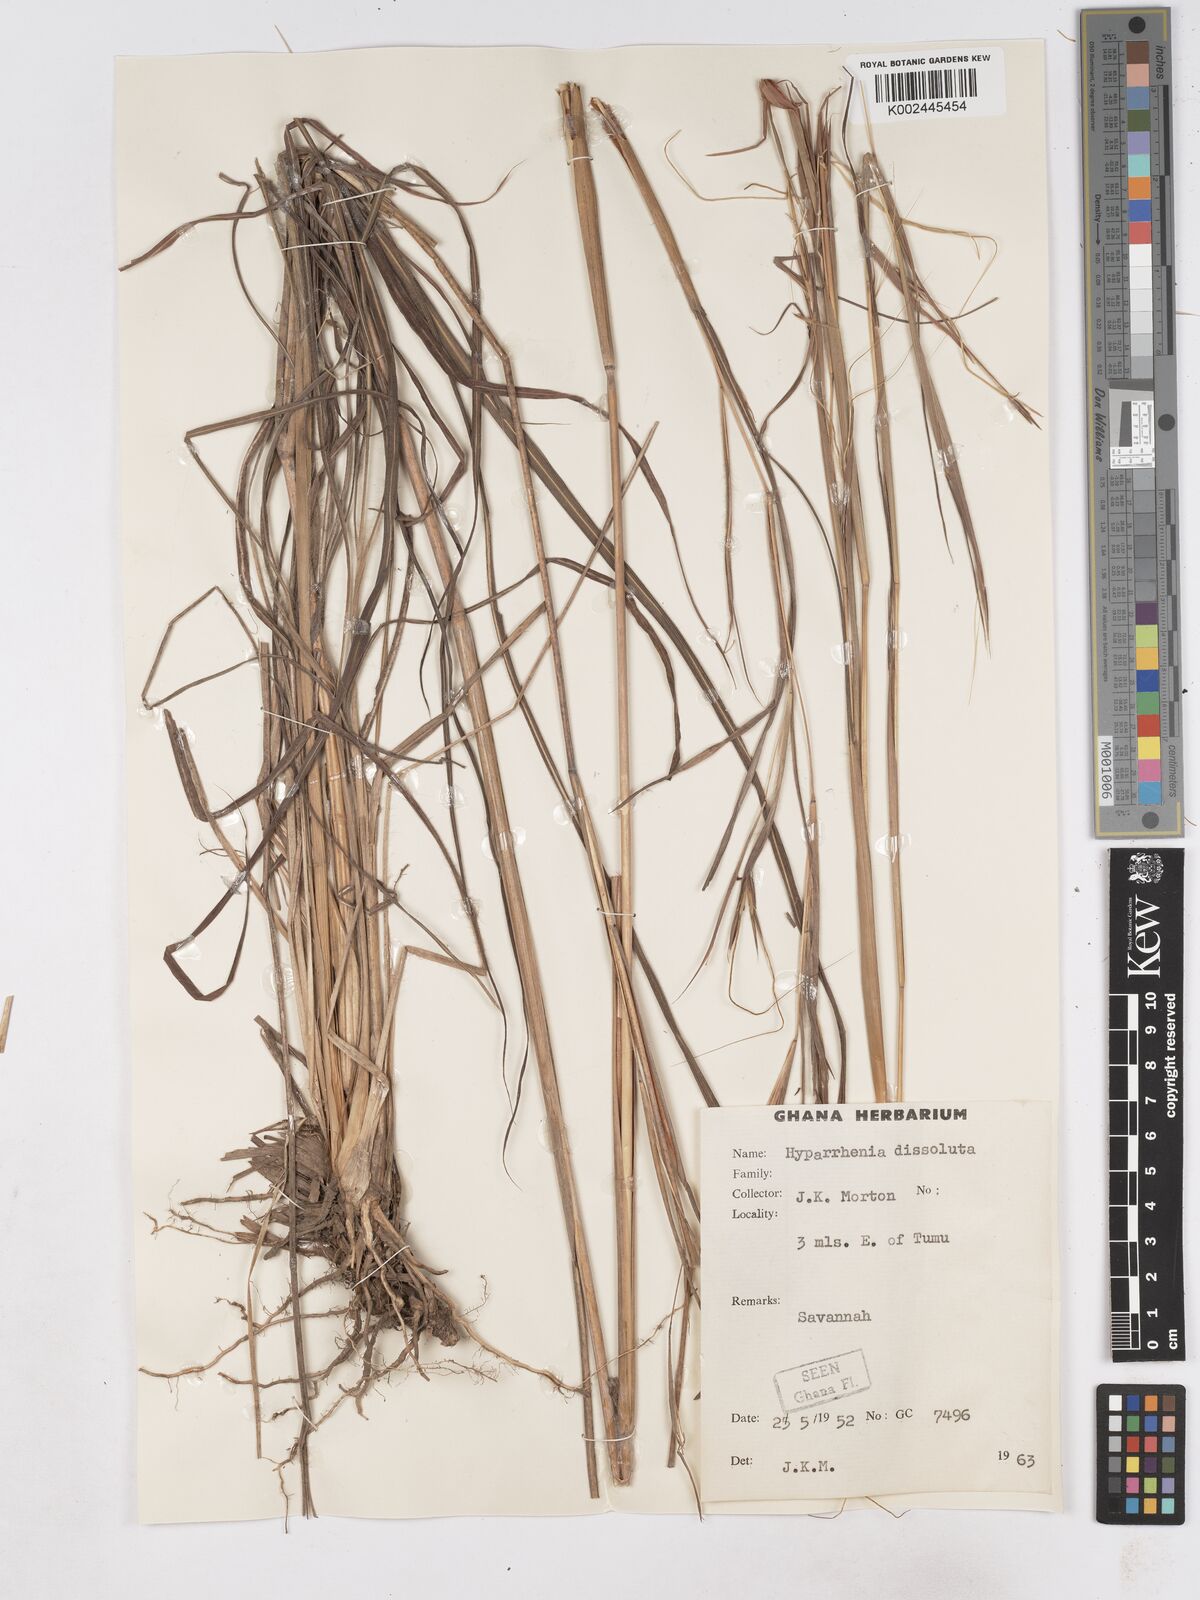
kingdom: Plantae
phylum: Tracheophyta
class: Liliopsida
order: Poales
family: Poaceae
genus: Hyperthelia
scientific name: Hyperthelia dissoluta
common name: Yellow thatching grass
